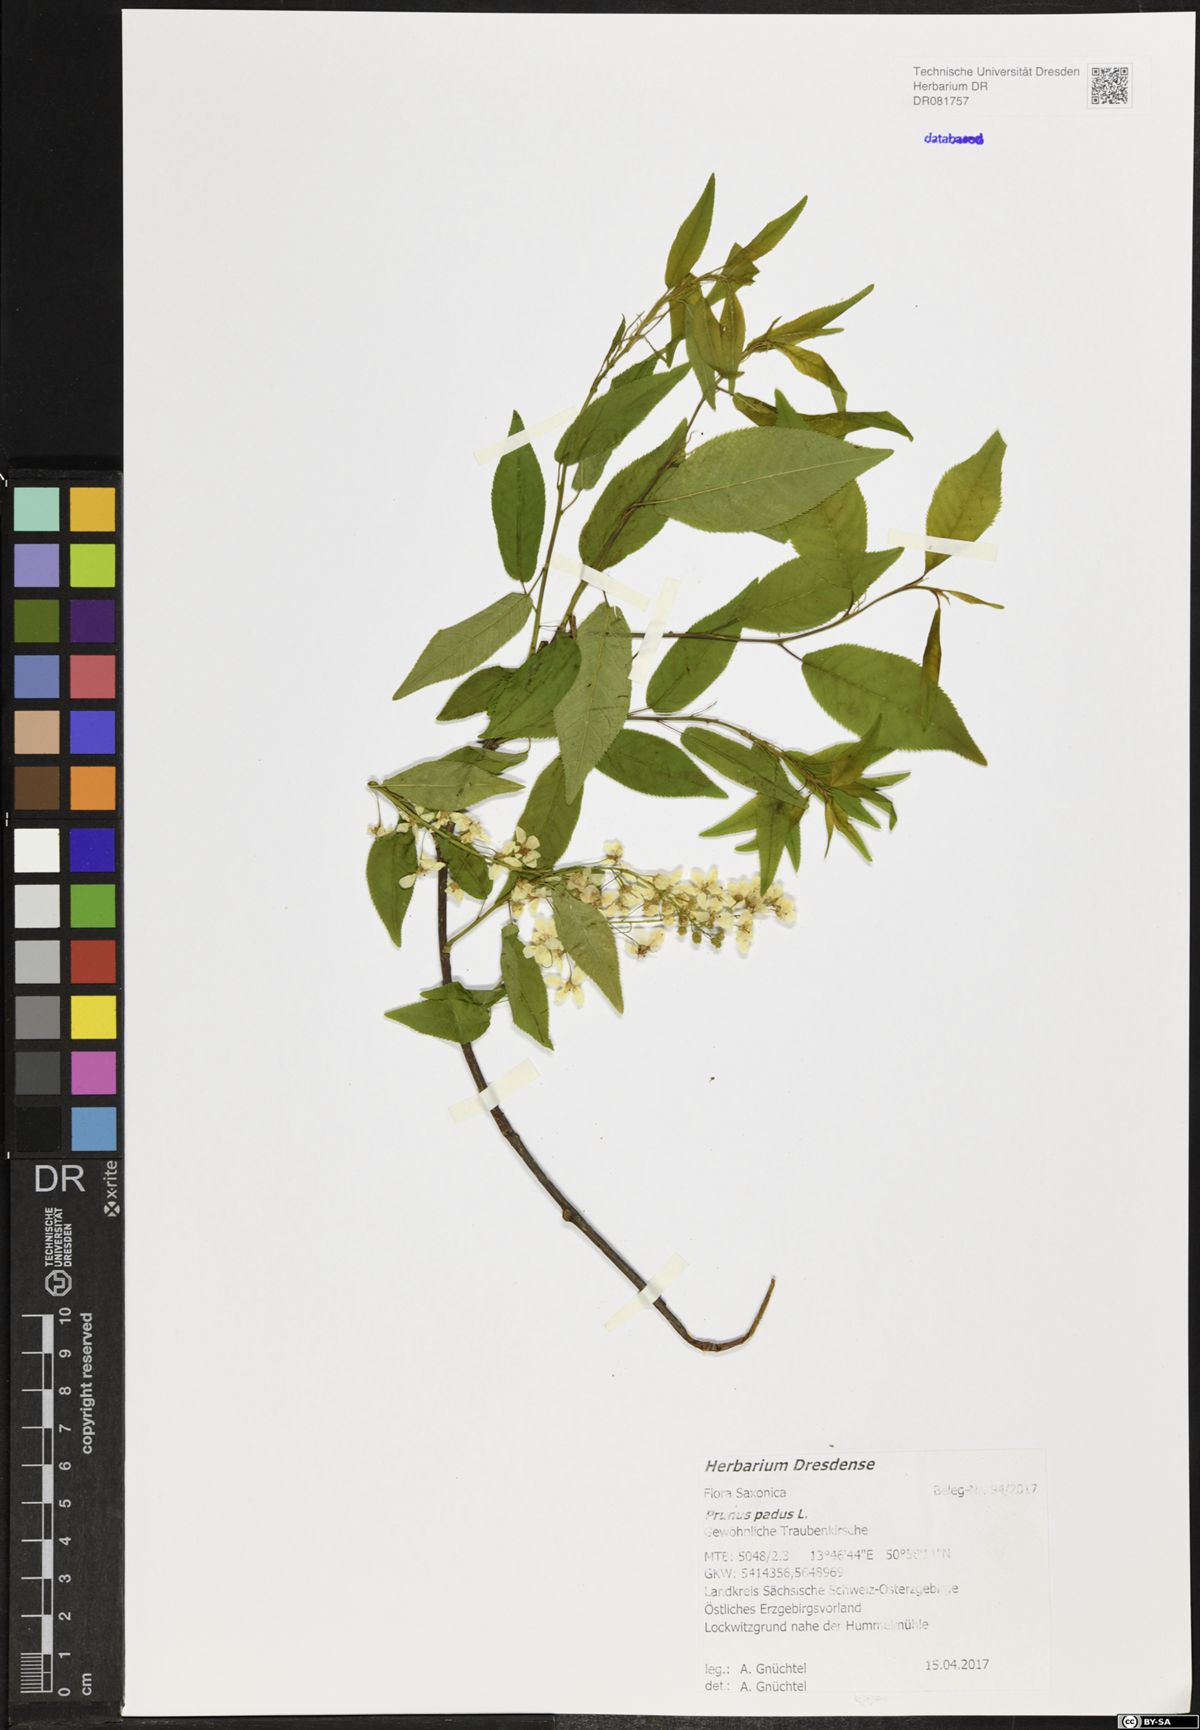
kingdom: Plantae
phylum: Tracheophyta
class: Magnoliopsida
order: Rosales
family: Rosaceae
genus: Prunus
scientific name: Prunus padus
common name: Bird cherry
